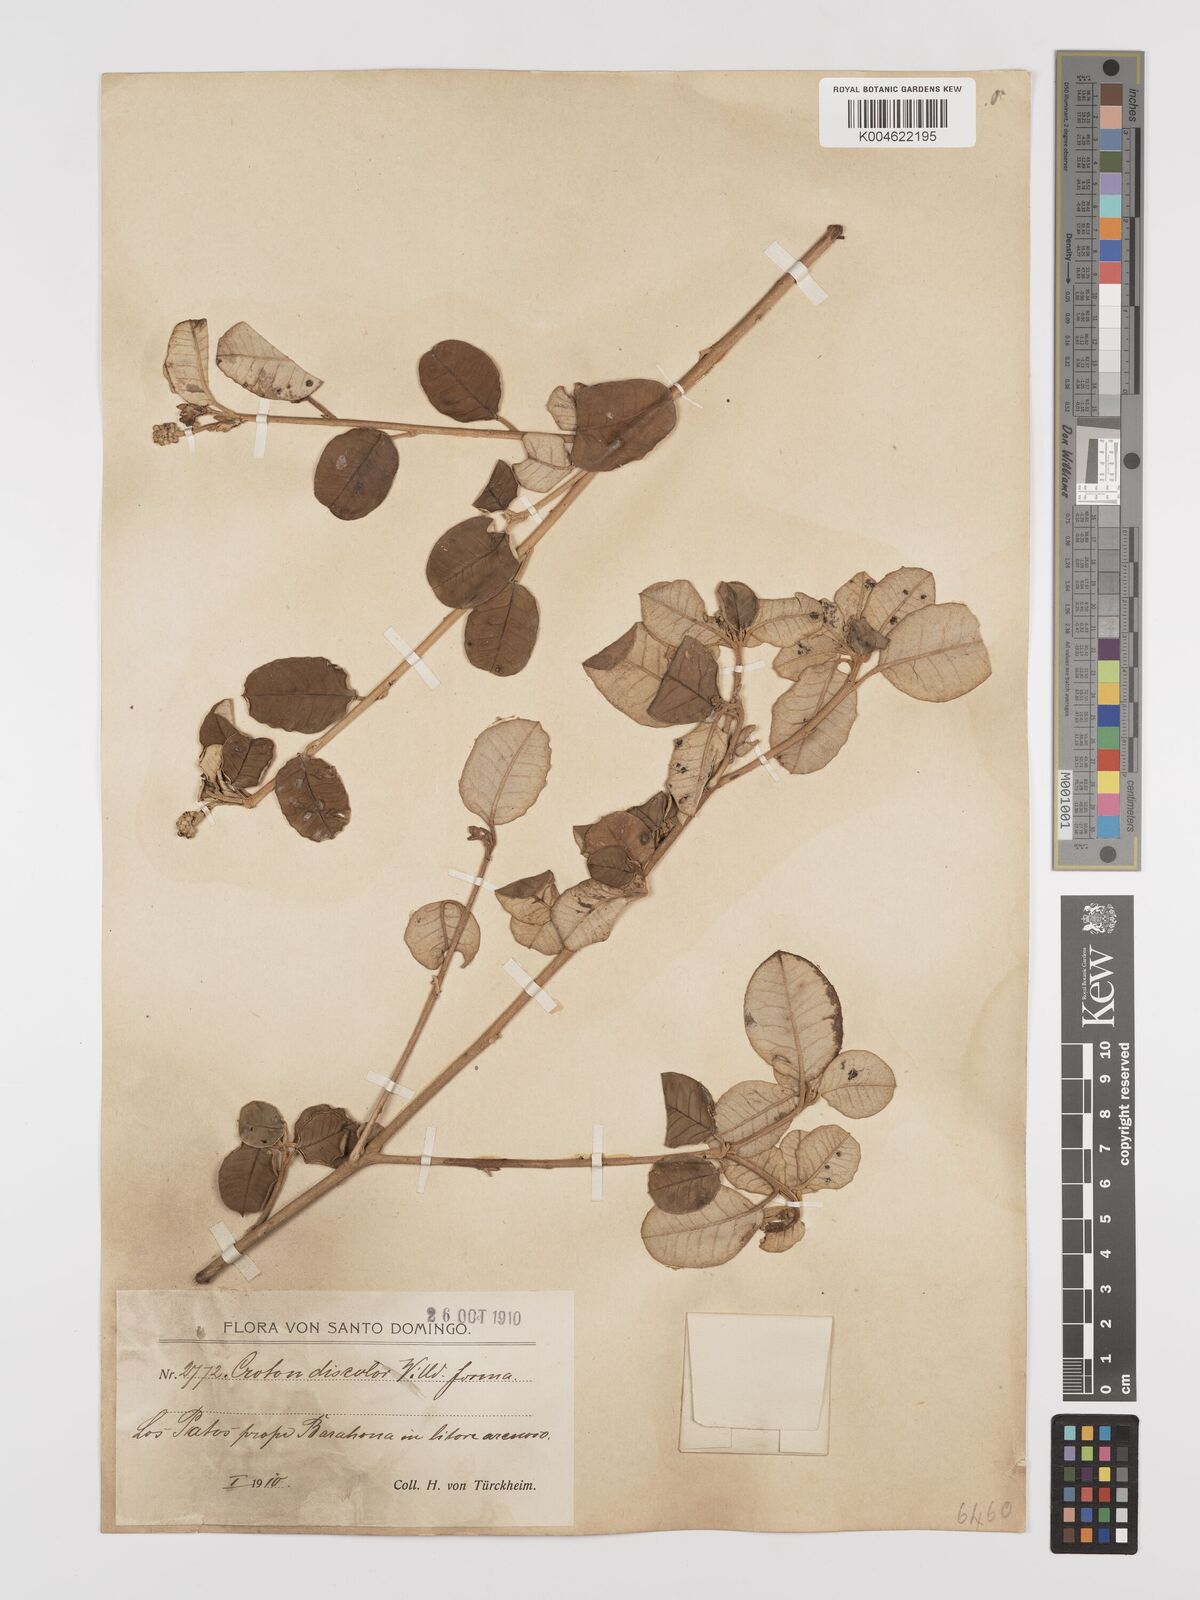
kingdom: Plantae
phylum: Tracheophyta
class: Magnoliopsida
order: Malpighiales
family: Euphorbiaceae
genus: Croton
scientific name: Croton
